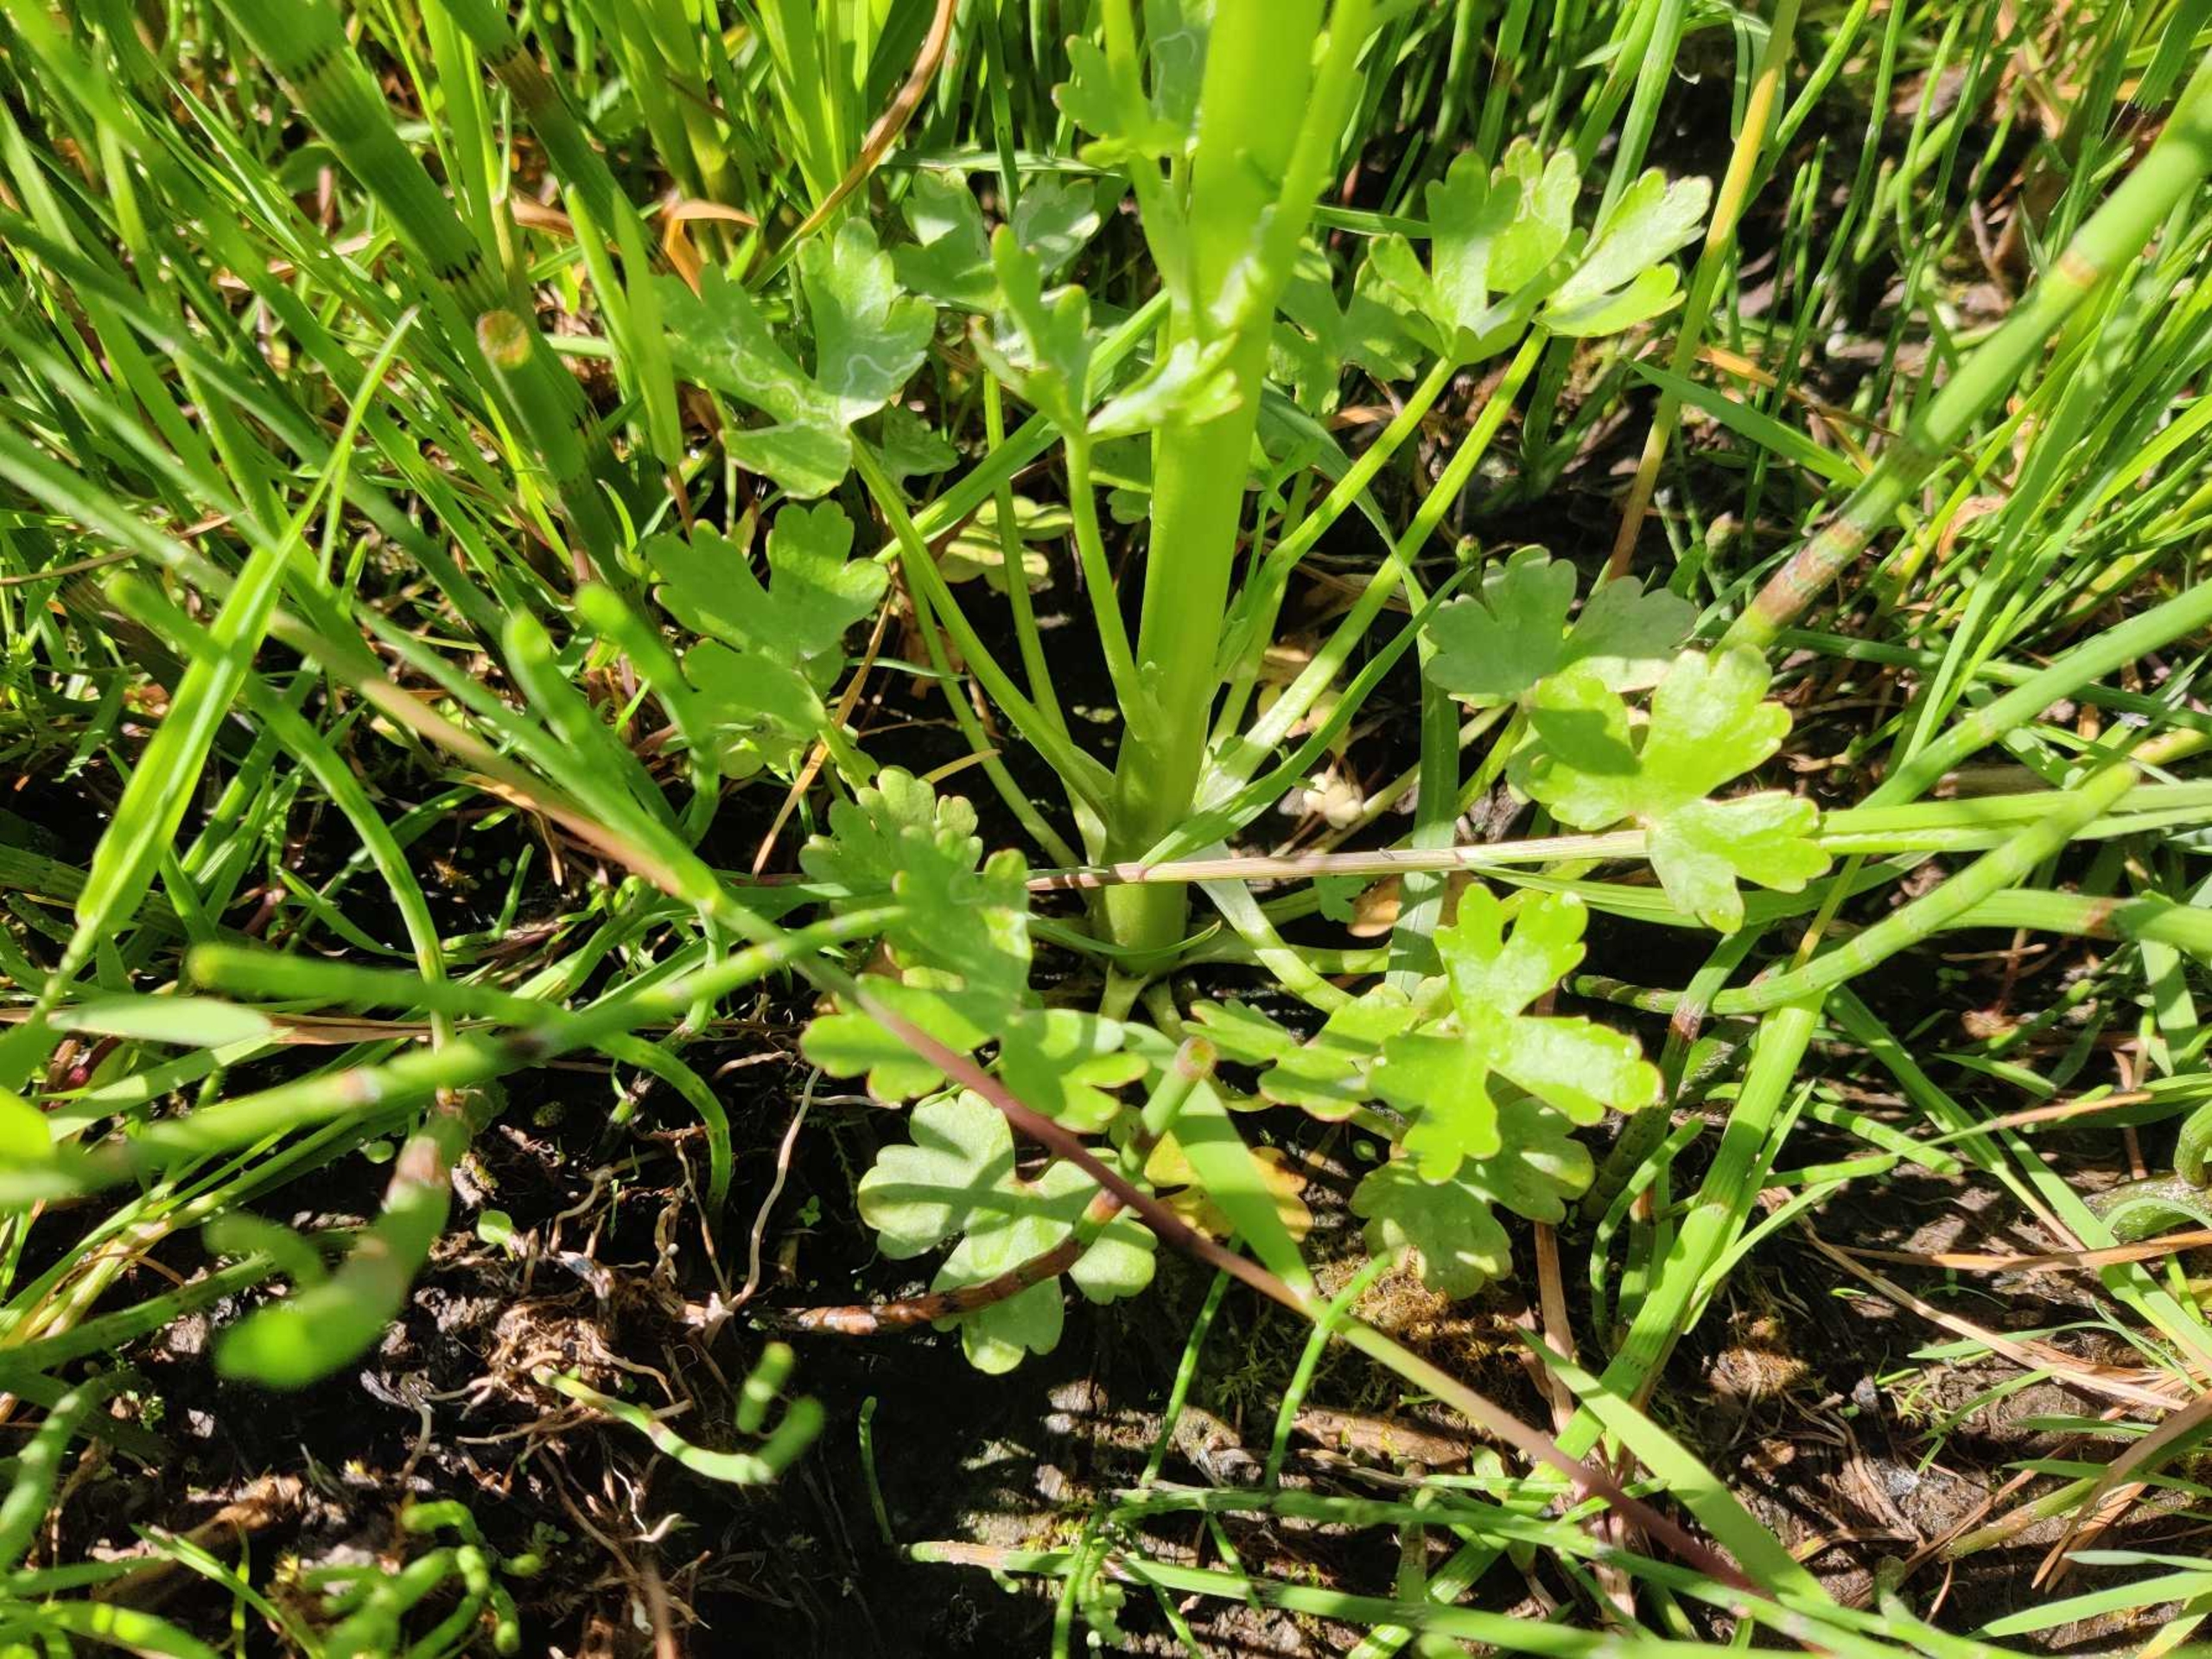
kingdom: Plantae
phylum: Tracheophyta
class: Magnoliopsida
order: Ranunculales
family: Ranunculaceae
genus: Ranunculus
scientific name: Ranunculus sceleratus
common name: Tigger-ranunkel
